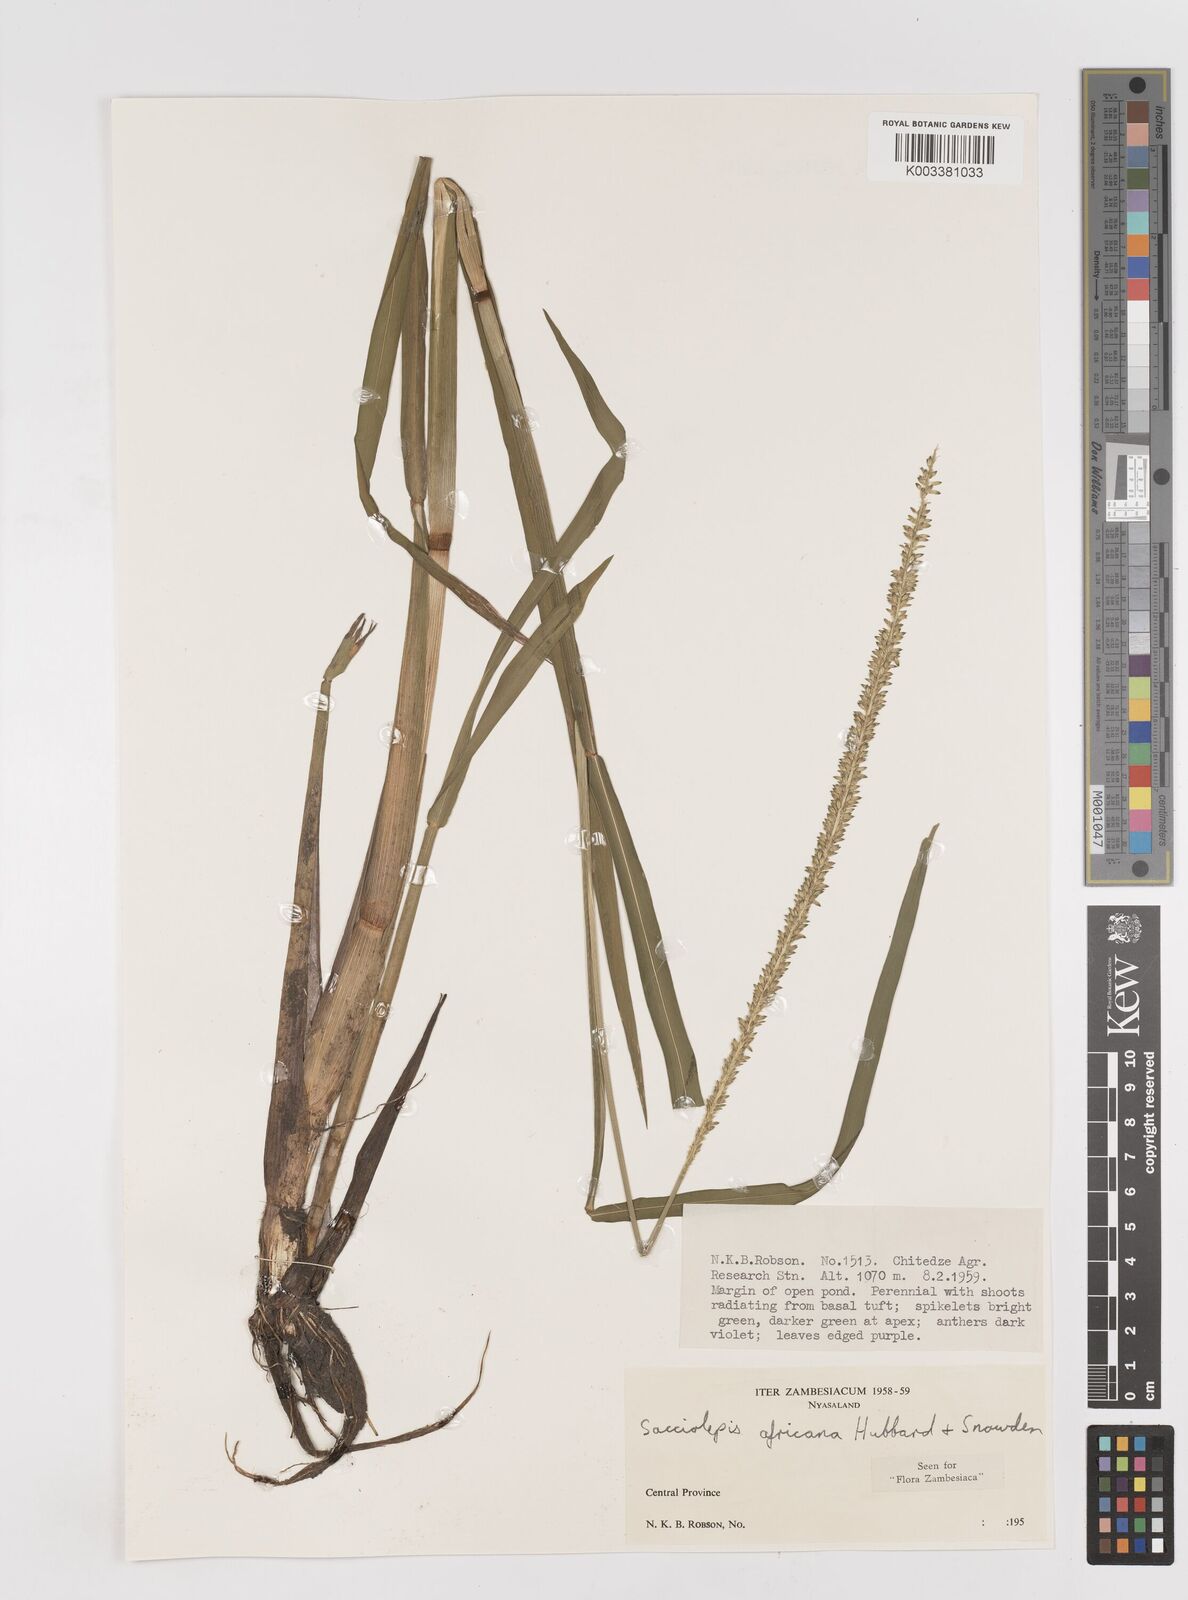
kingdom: Plantae
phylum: Tracheophyta
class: Liliopsida
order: Poales
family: Poaceae
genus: Sacciolepis
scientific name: Sacciolepis africana
